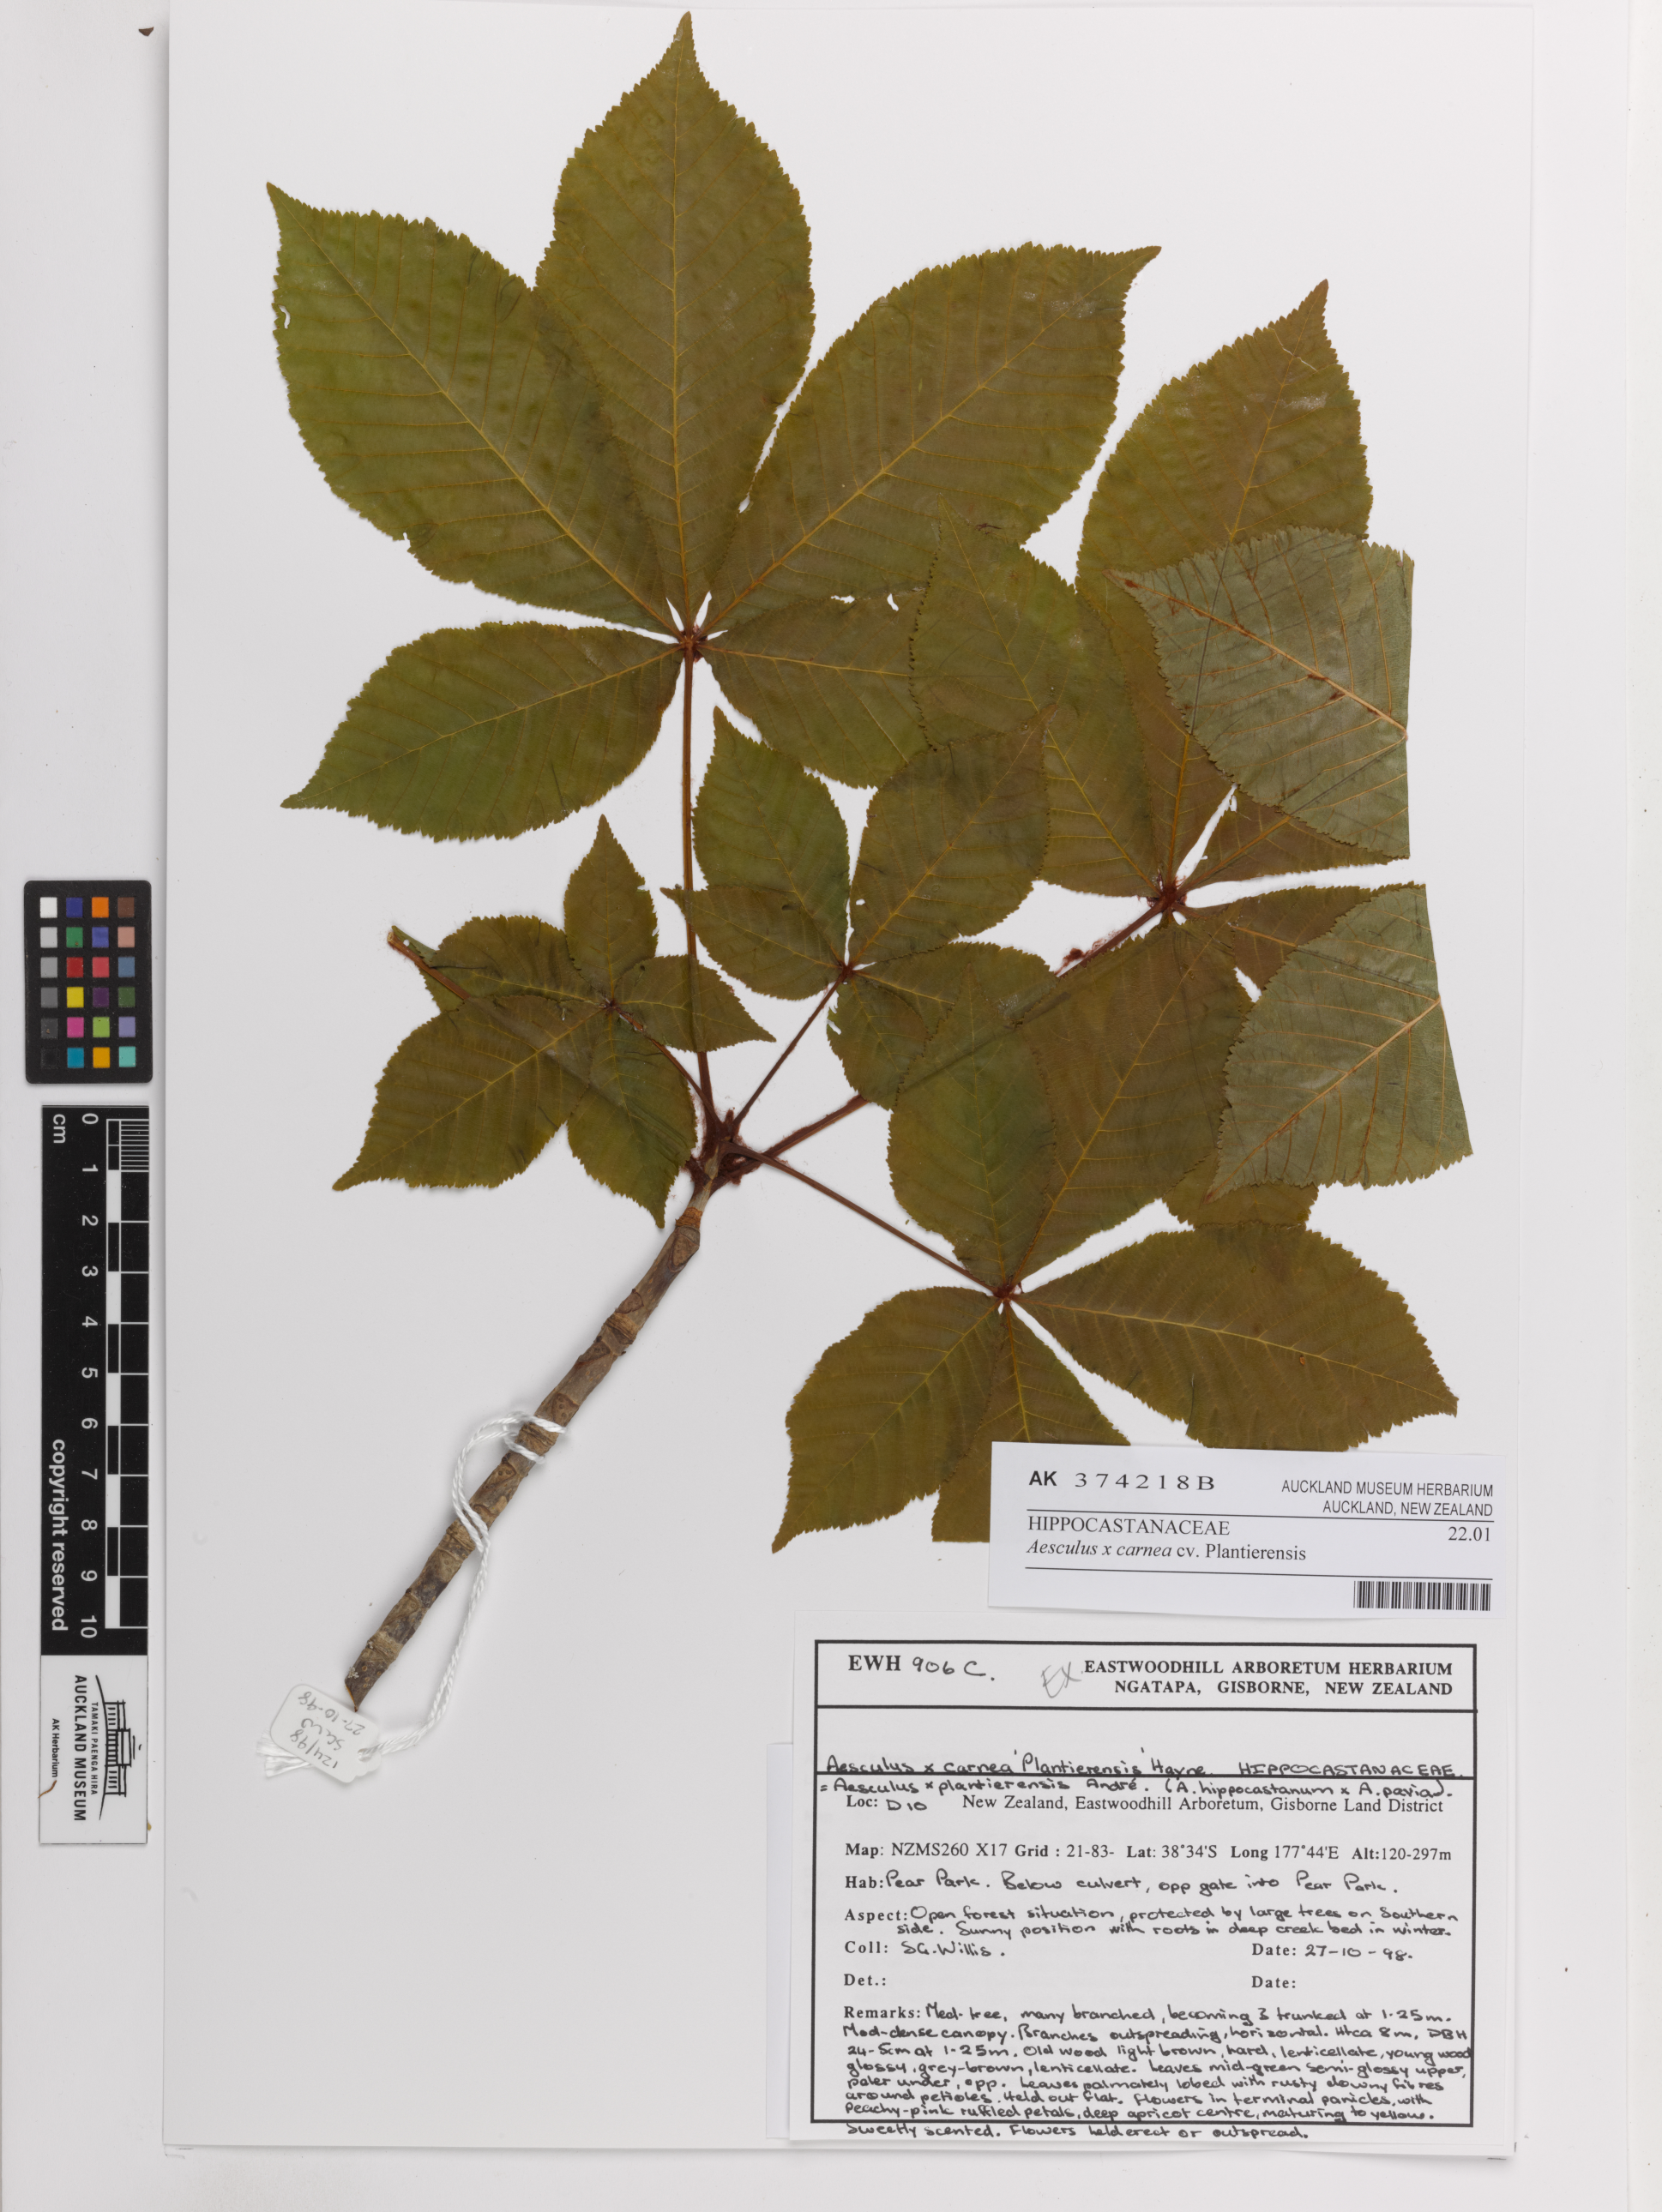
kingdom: Plantae
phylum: Tracheophyta
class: Magnoliopsida
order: Sapindales
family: Sapindaceae
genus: Aesculus
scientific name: Aesculus carnea
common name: Red horse-chestnut
